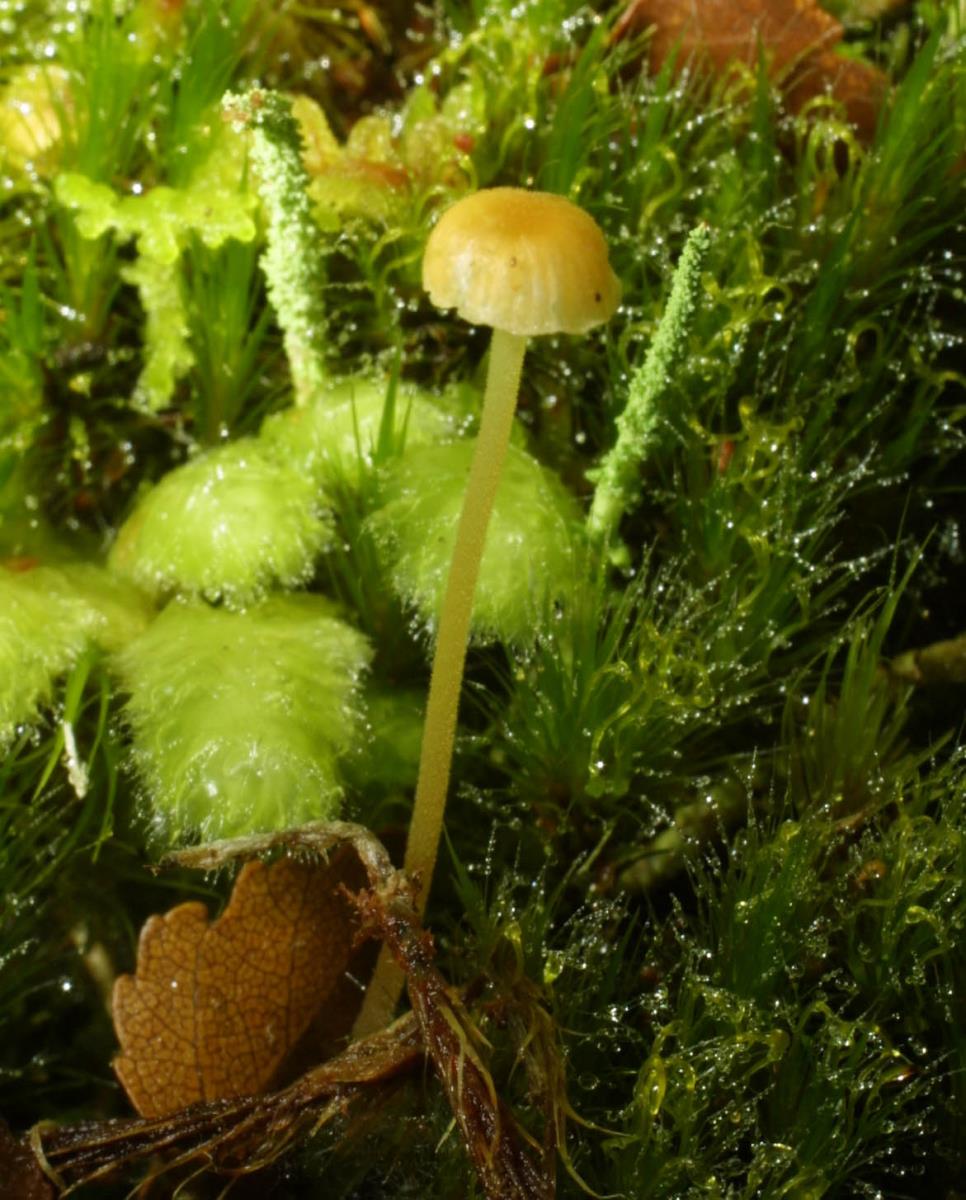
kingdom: Fungi
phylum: Basidiomycota
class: Agaricomycetes
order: Hymenochaetales
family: Rickenellaceae
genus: Rickenella
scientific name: Rickenella
